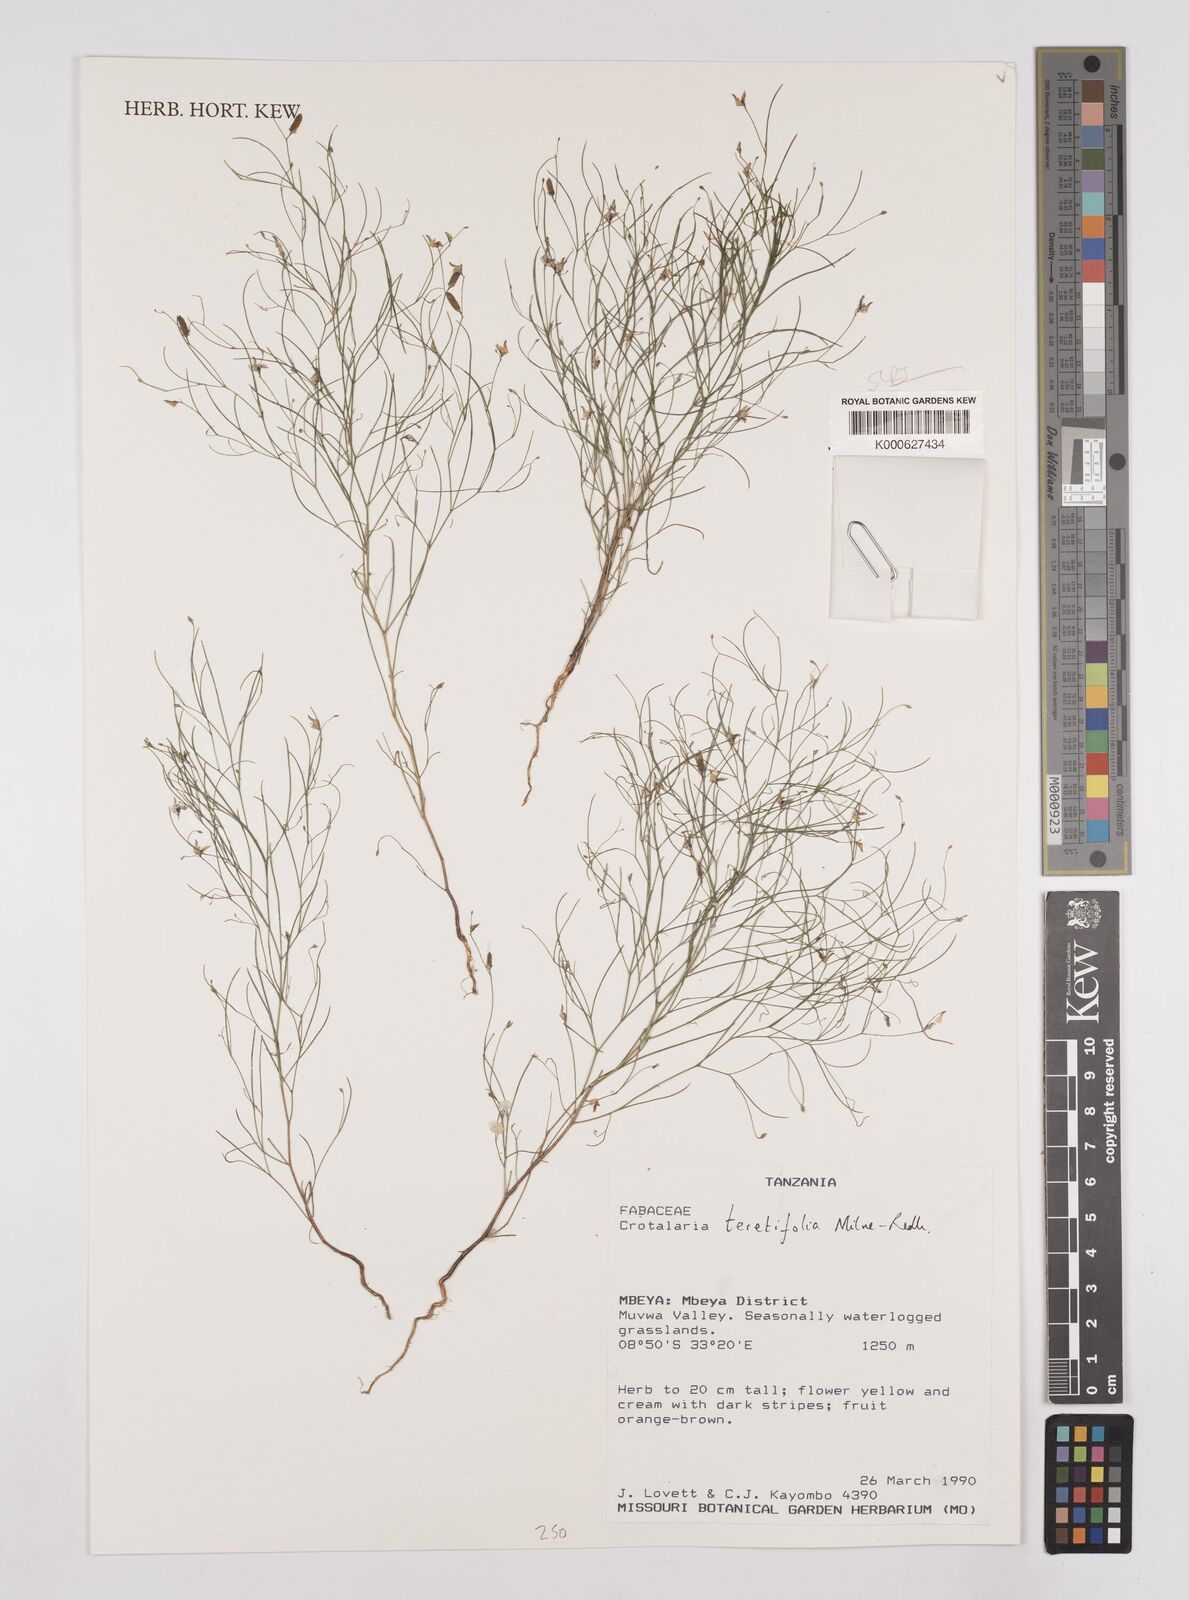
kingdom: Plantae
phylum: Tracheophyta
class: Magnoliopsida
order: Fabales
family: Fabaceae
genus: Crotalaria
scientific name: Crotalaria teretifolia
